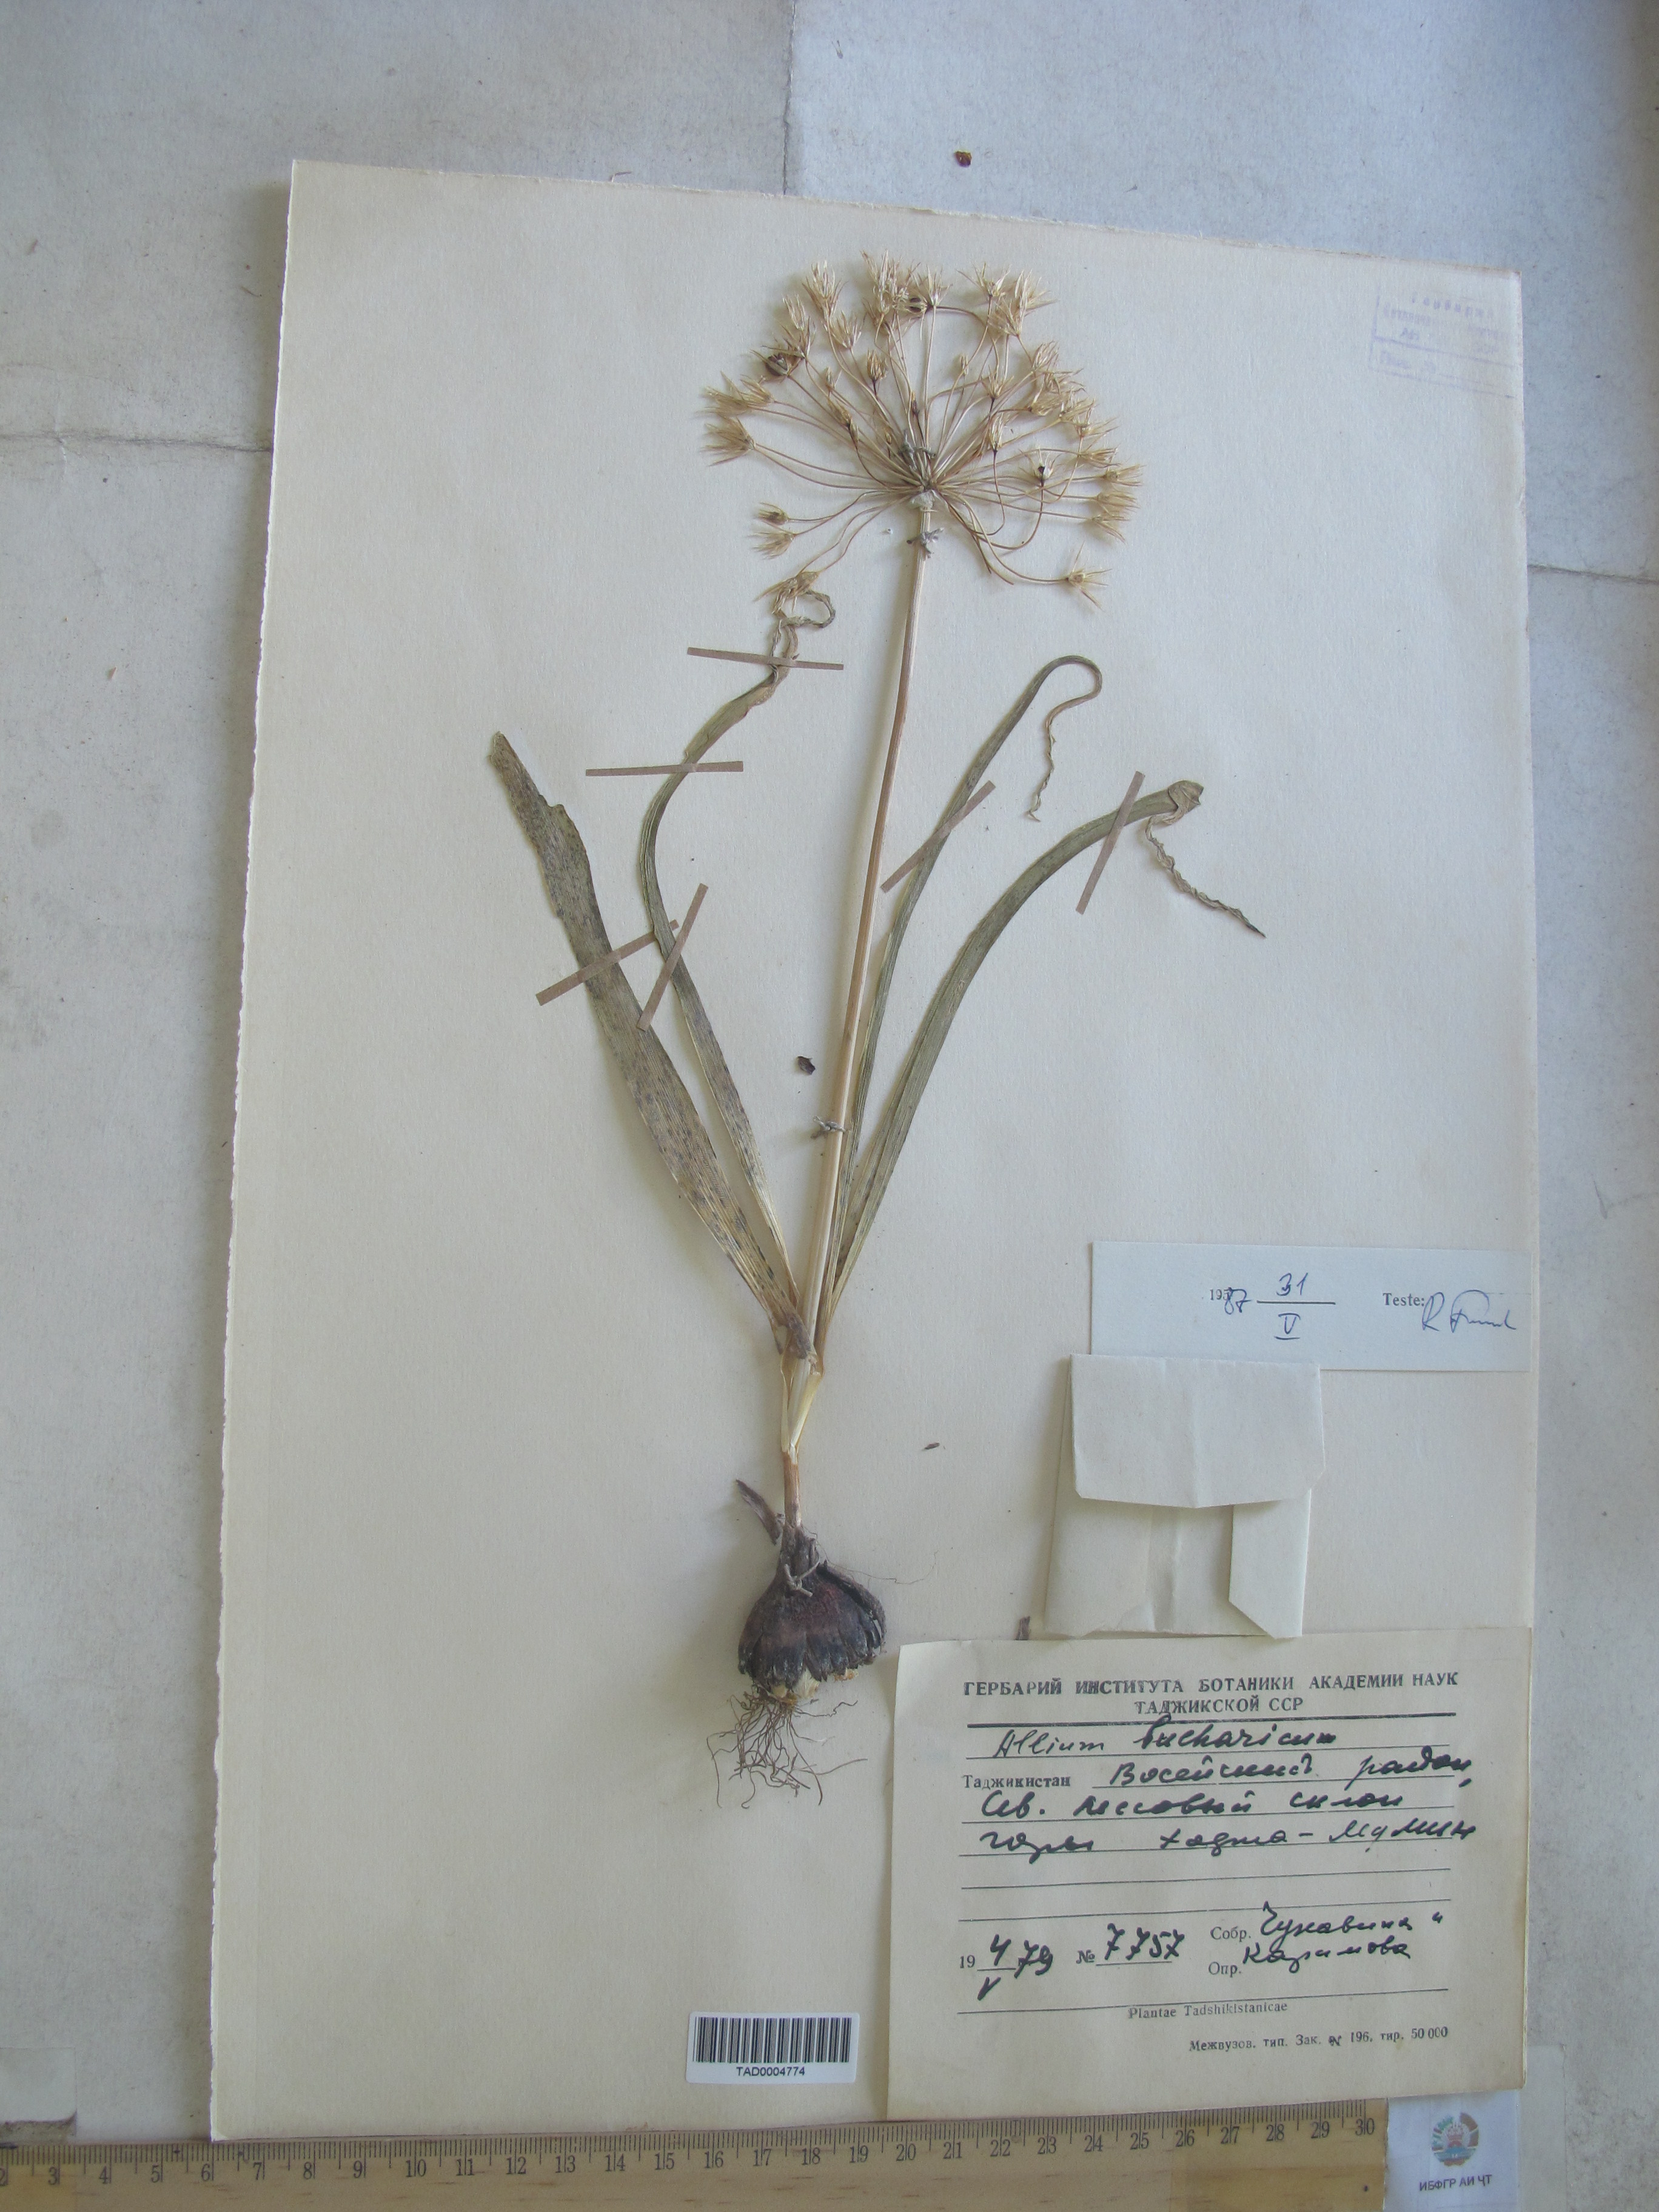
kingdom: Plantae
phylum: Tracheophyta
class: Liliopsida
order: Asparagales
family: Amaryllidaceae
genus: Allium
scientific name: Allium bucharicum
